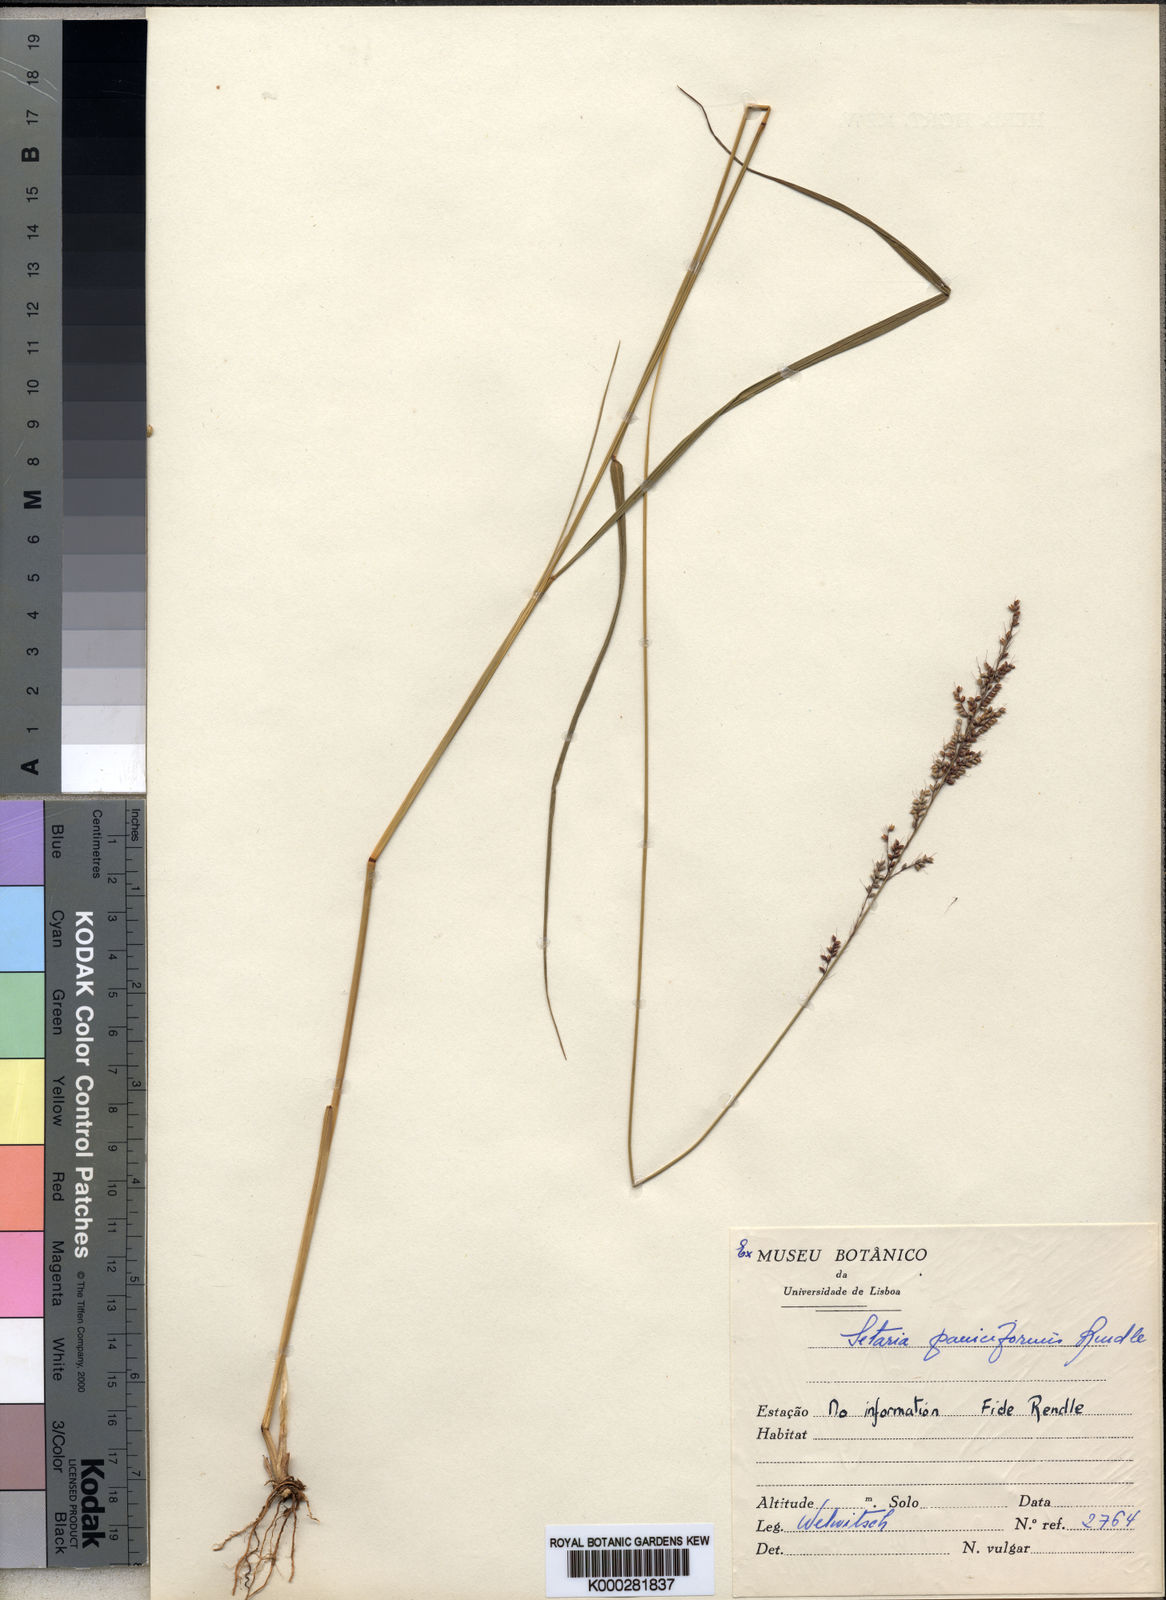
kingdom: Plantae
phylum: Tracheophyta
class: Liliopsida
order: Poales
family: Poaceae
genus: Setaria
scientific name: Setaria longiseta
